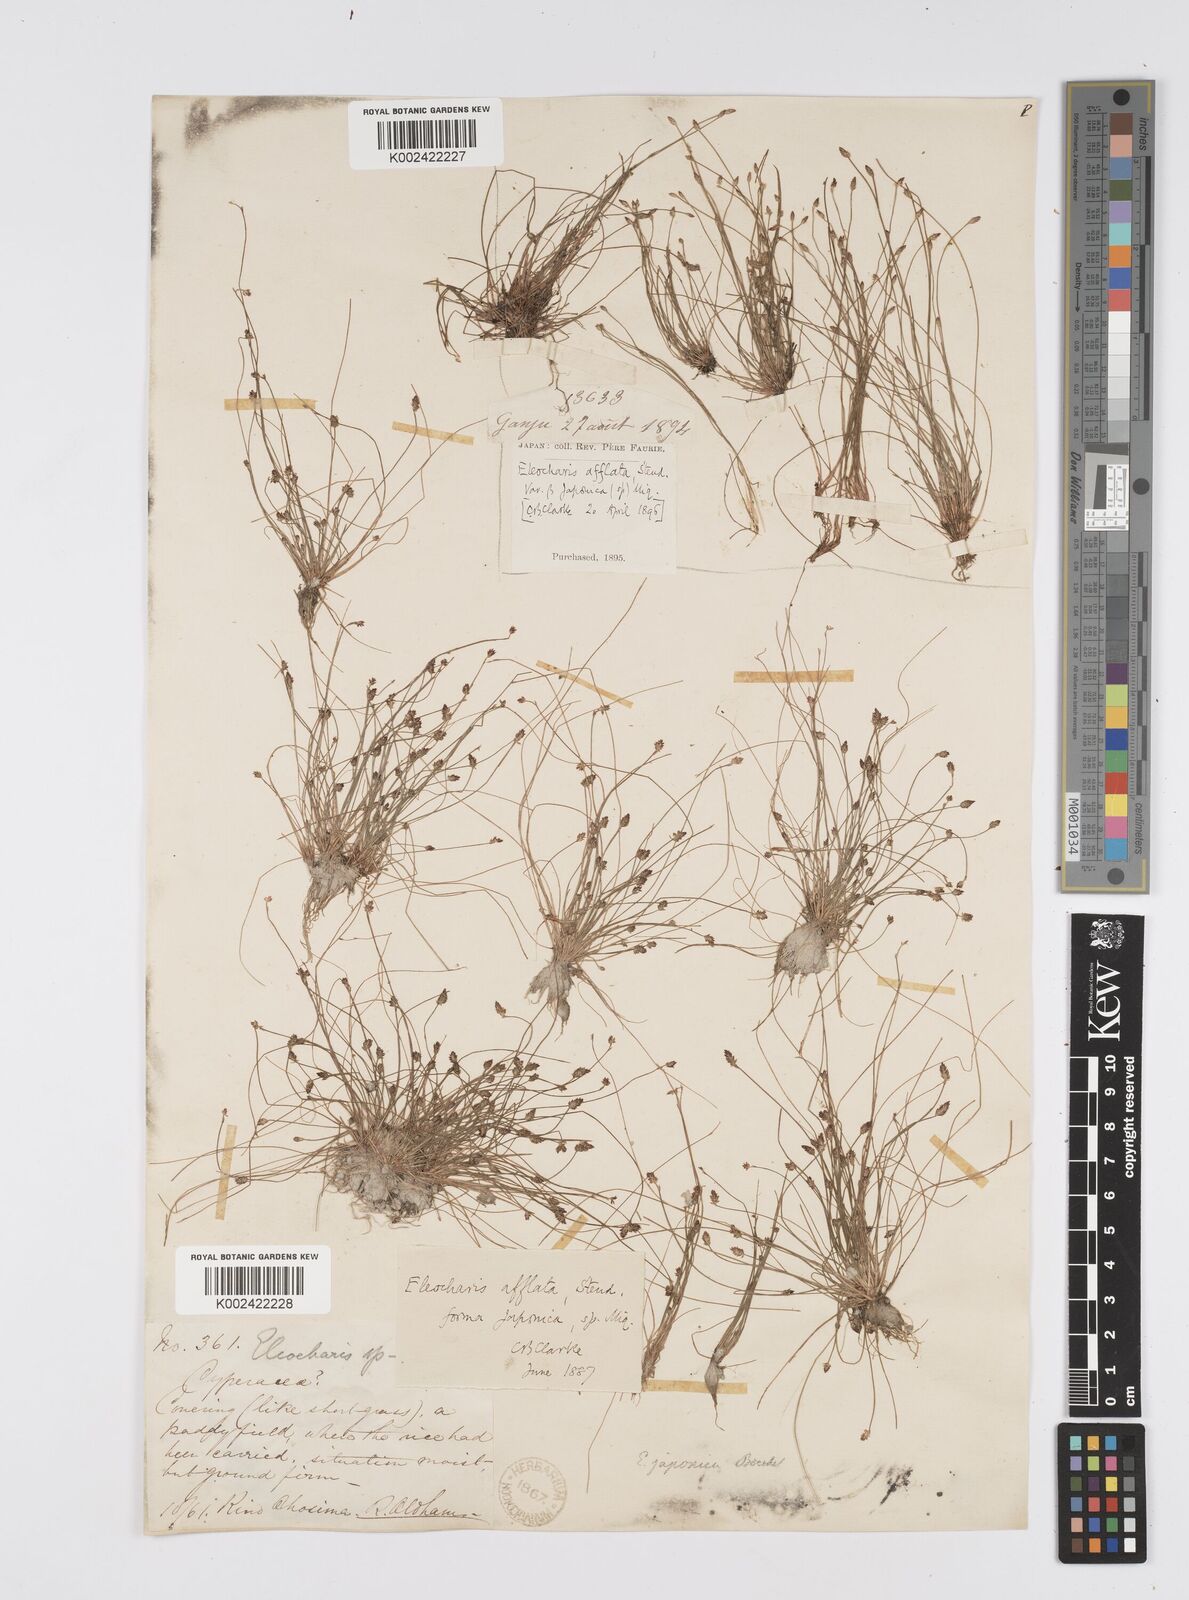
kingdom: Plantae
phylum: Tracheophyta
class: Liliopsida
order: Poales
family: Cyperaceae
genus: Eleocharis
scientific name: Eleocharis pellucida
